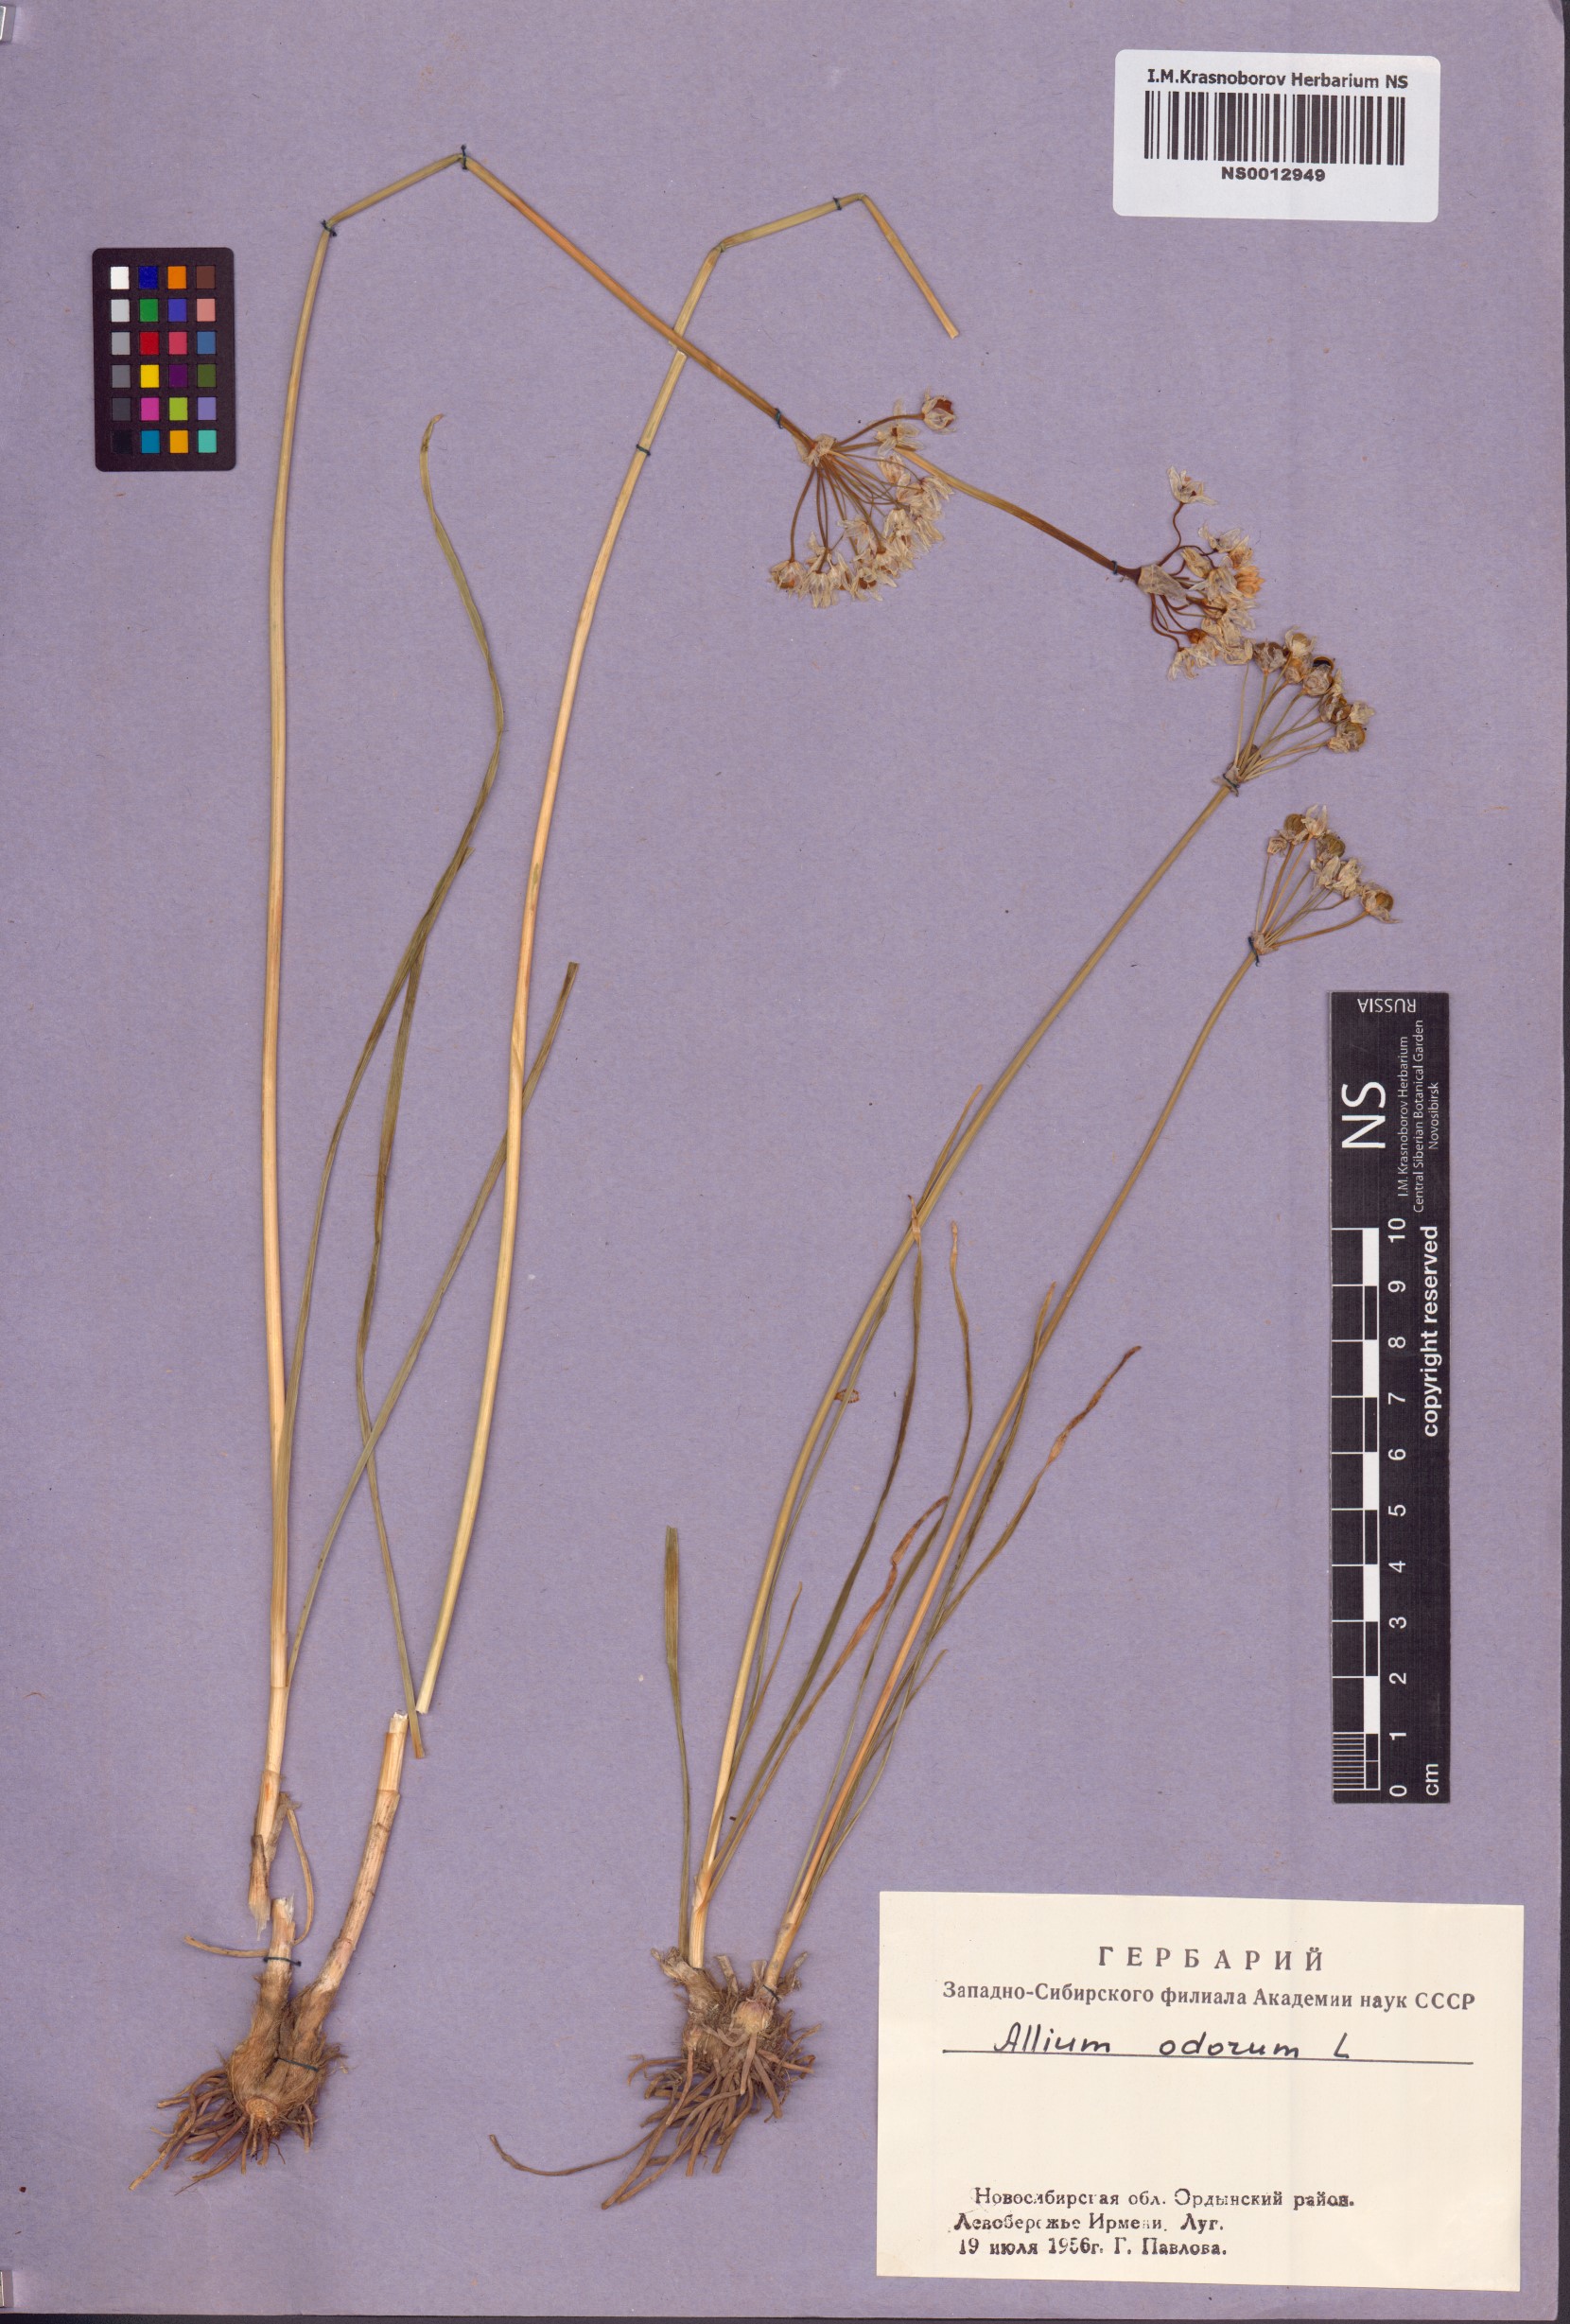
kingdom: Plantae
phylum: Tracheophyta
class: Liliopsida
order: Asparagales
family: Amaryllidaceae
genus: Allium
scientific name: Allium ramosum
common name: Fragrant garlic
